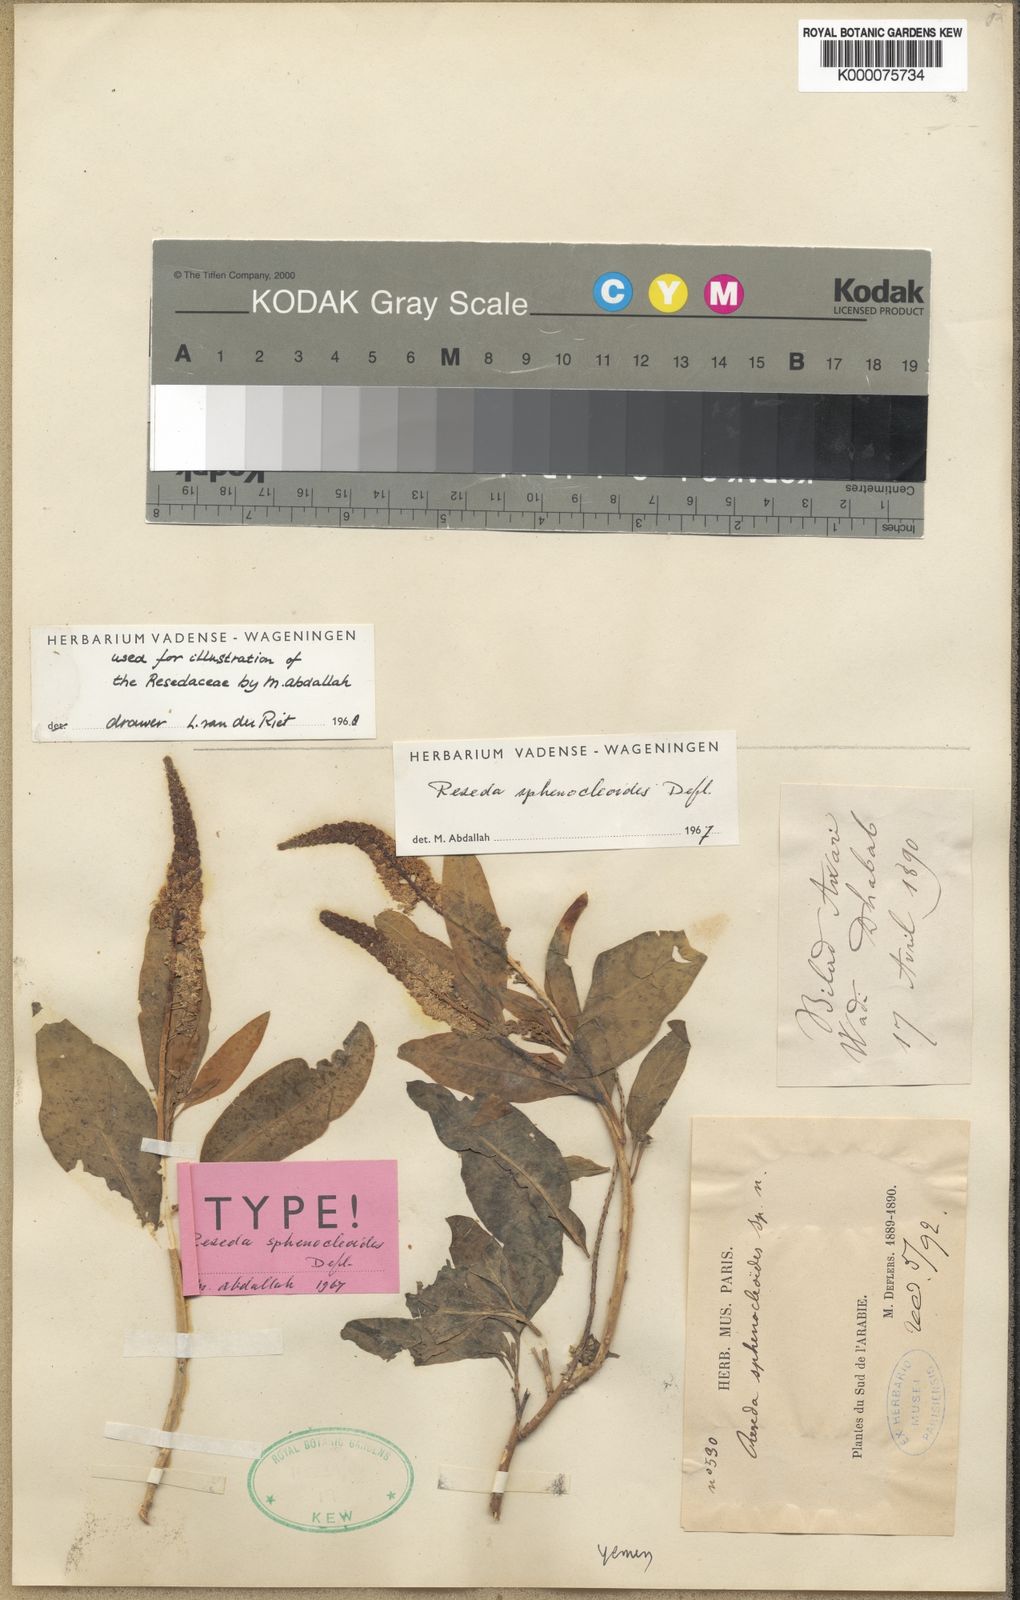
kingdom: Plantae
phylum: Tracheophyta
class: Magnoliopsida
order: Brassicales
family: Resedaceae
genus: Reseda
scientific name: Reseda sphenocleoides
